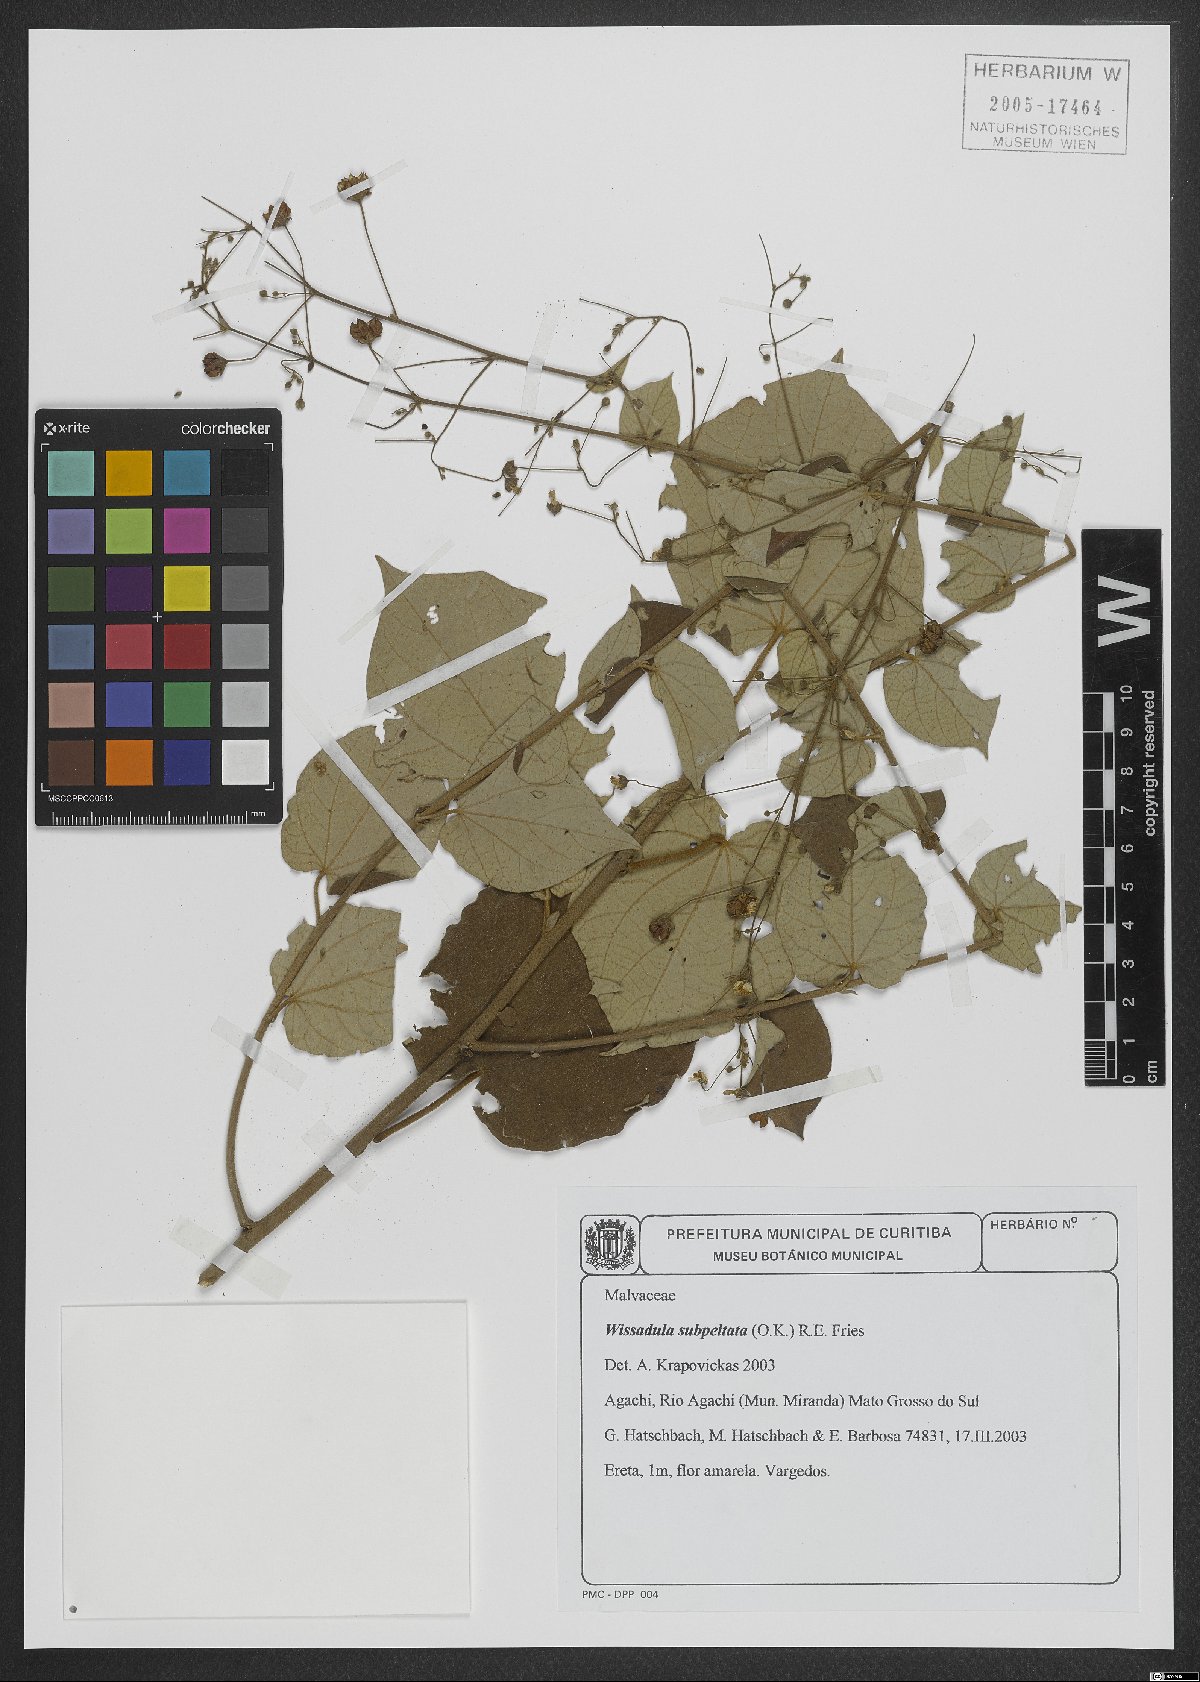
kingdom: Plantae
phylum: Tracheophyta
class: Magnoliopsida
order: Malvales
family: Malvaceae
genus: Wissadula
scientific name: Wissadula subpeltata
